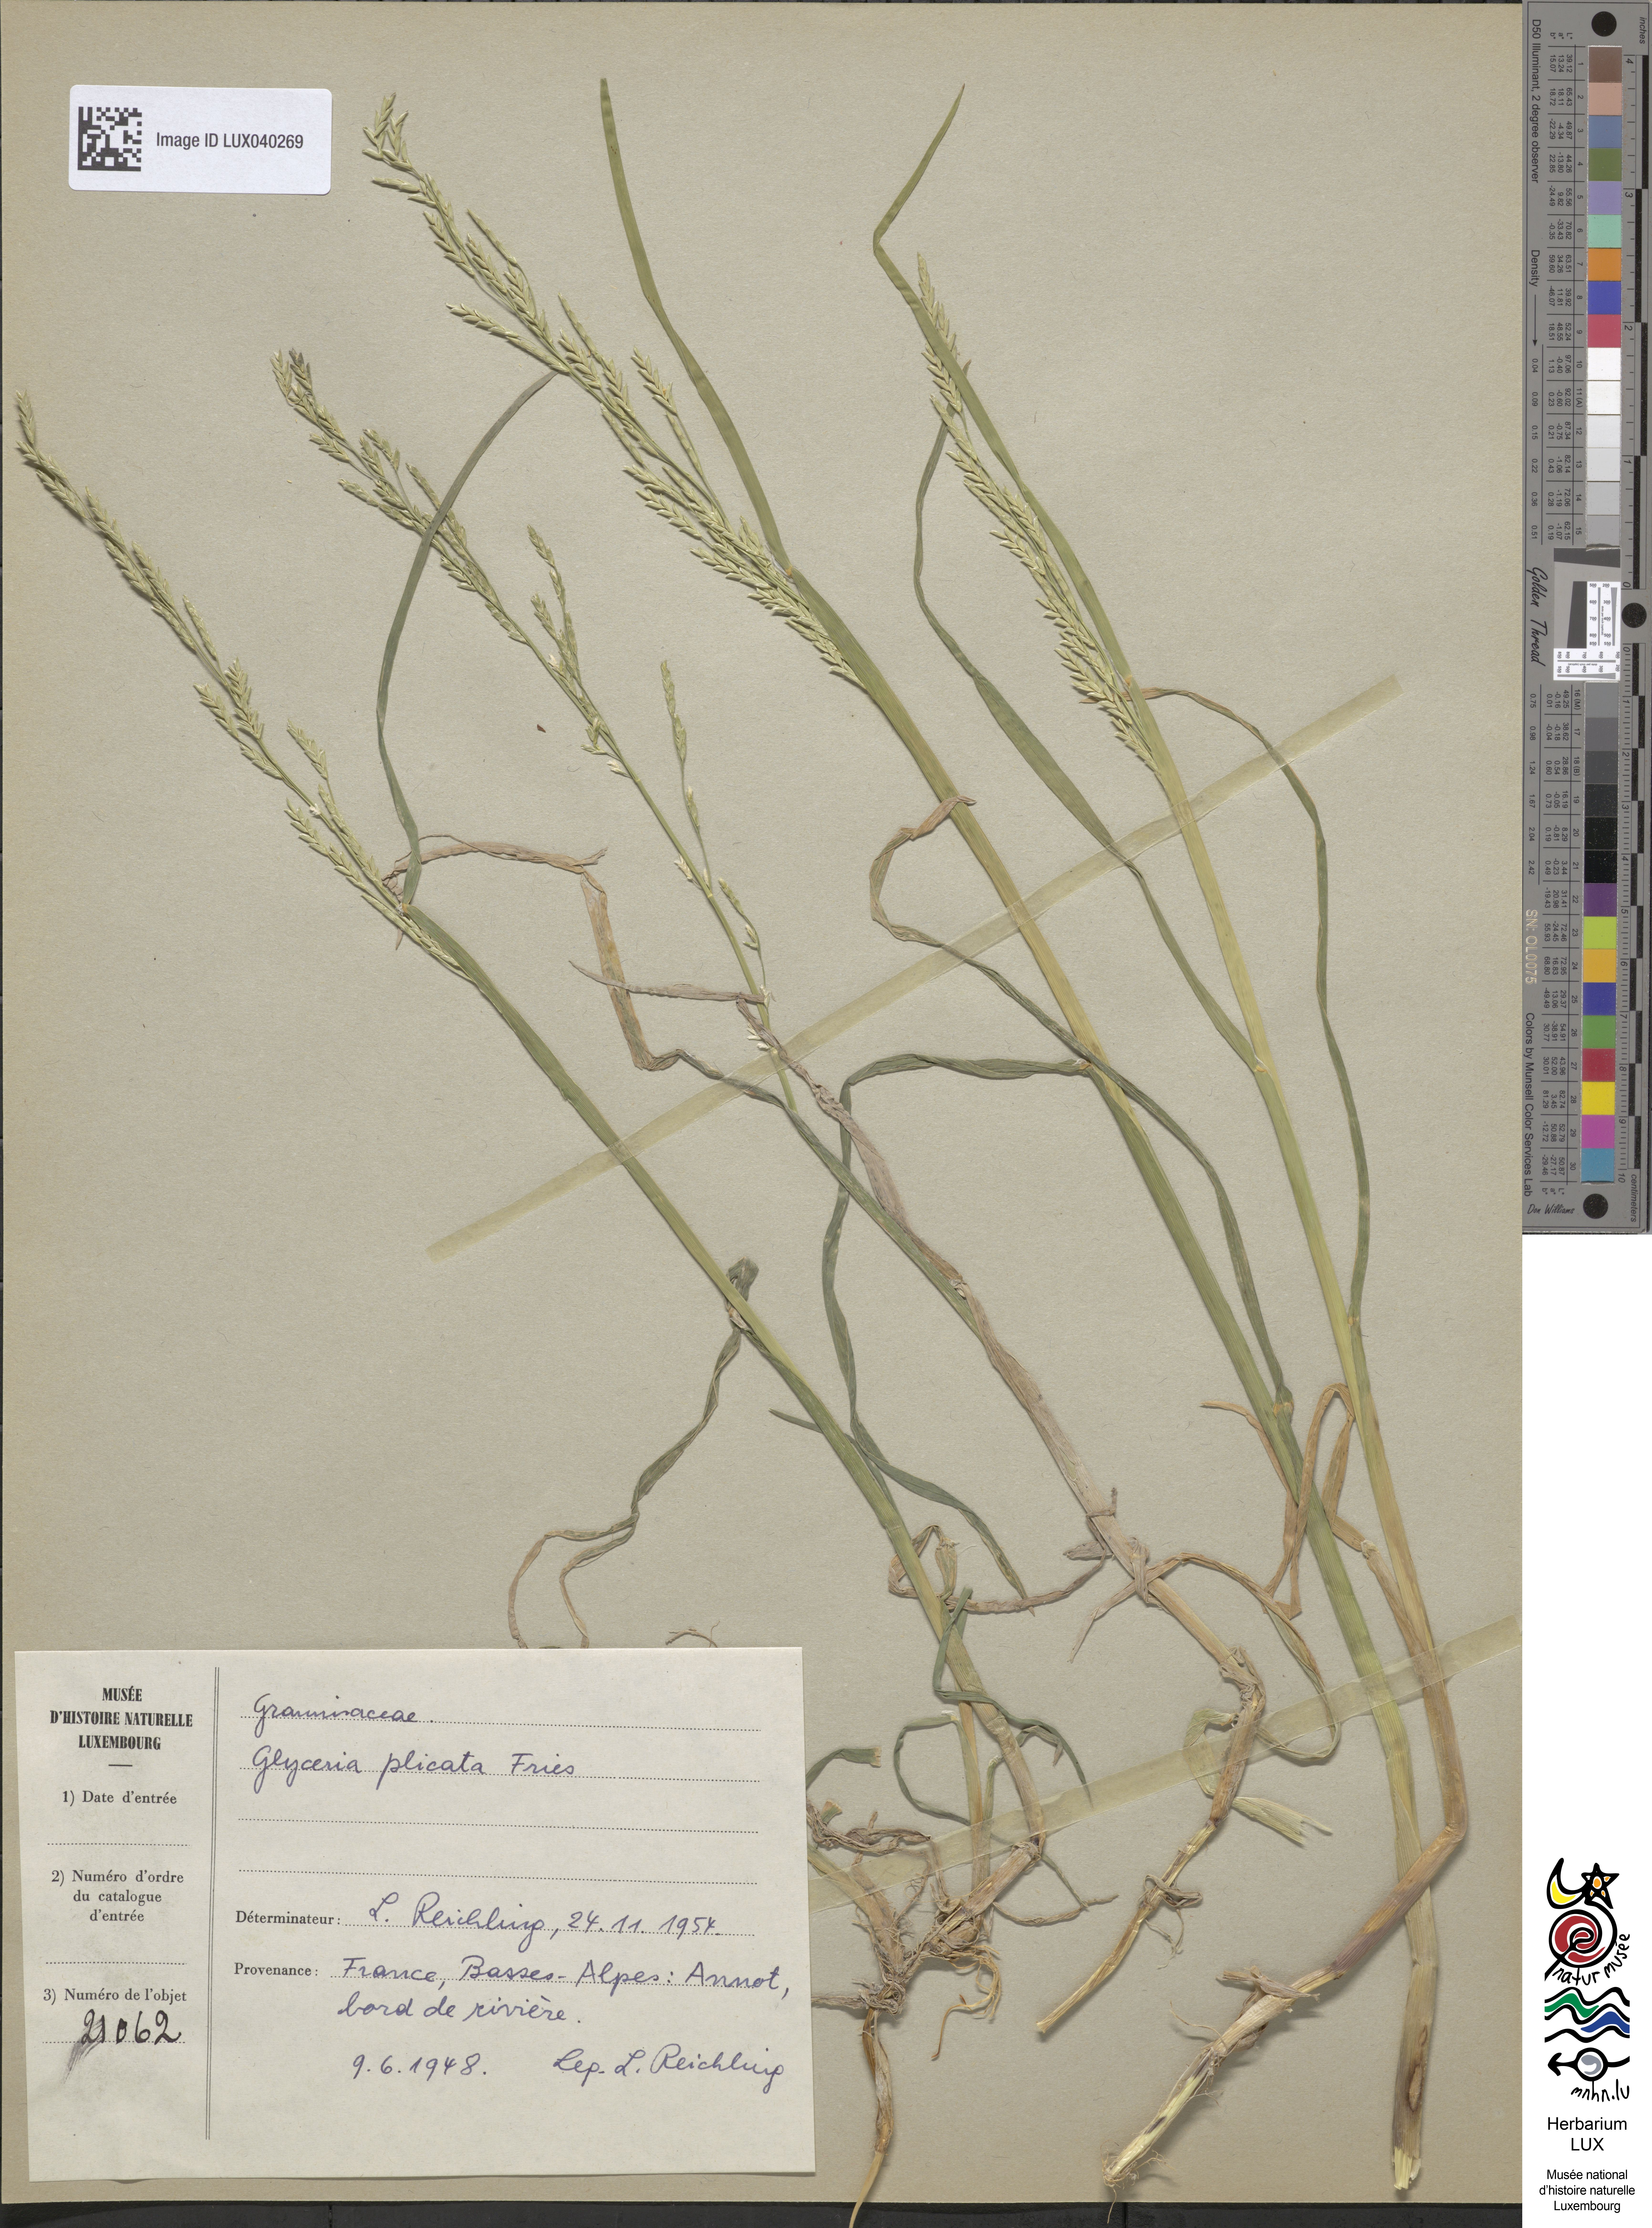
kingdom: Plantae
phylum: Tracheophyta
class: Liliopsida
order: Poales
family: Poaceae
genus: Glyceria
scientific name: Glyceria notata
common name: Plicate sweet-grass
